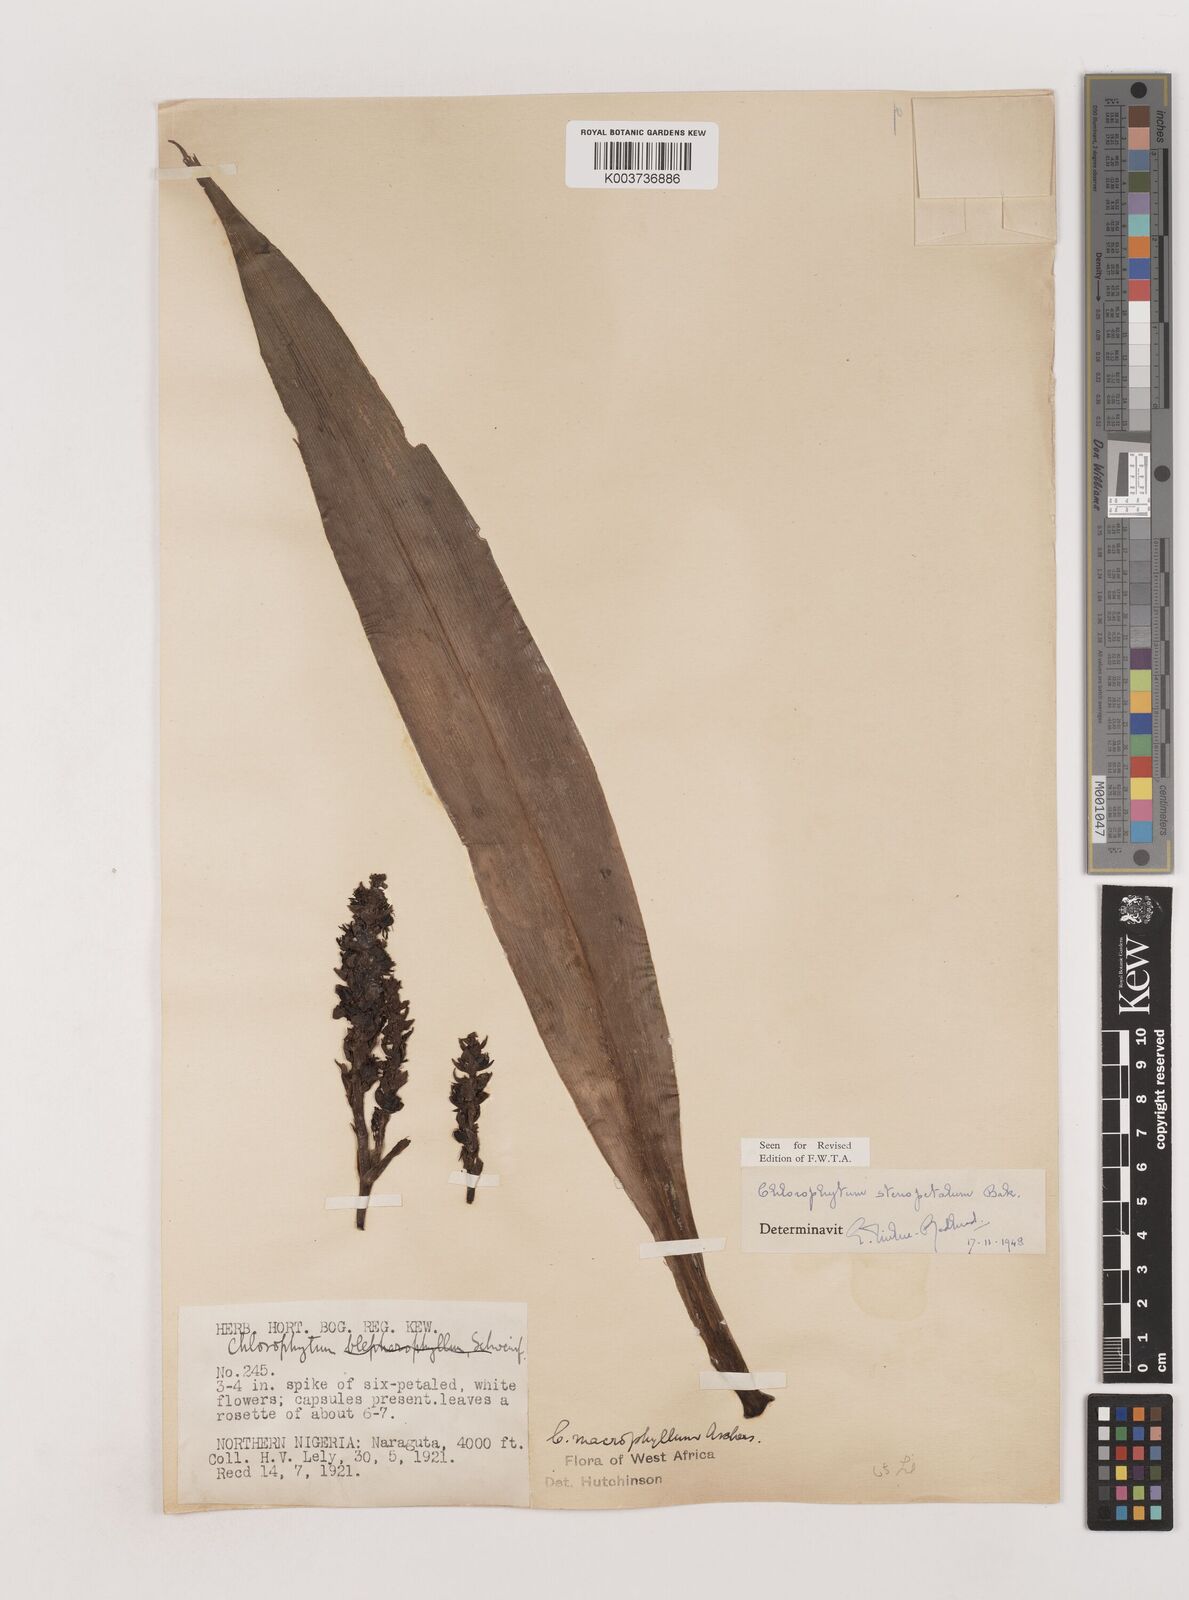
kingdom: Plantae
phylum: Tracheophyta
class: Liliopsida
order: Asparagales
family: Asparagaceae
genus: Chlorophytum
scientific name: Chlorophytum stenopetalum
